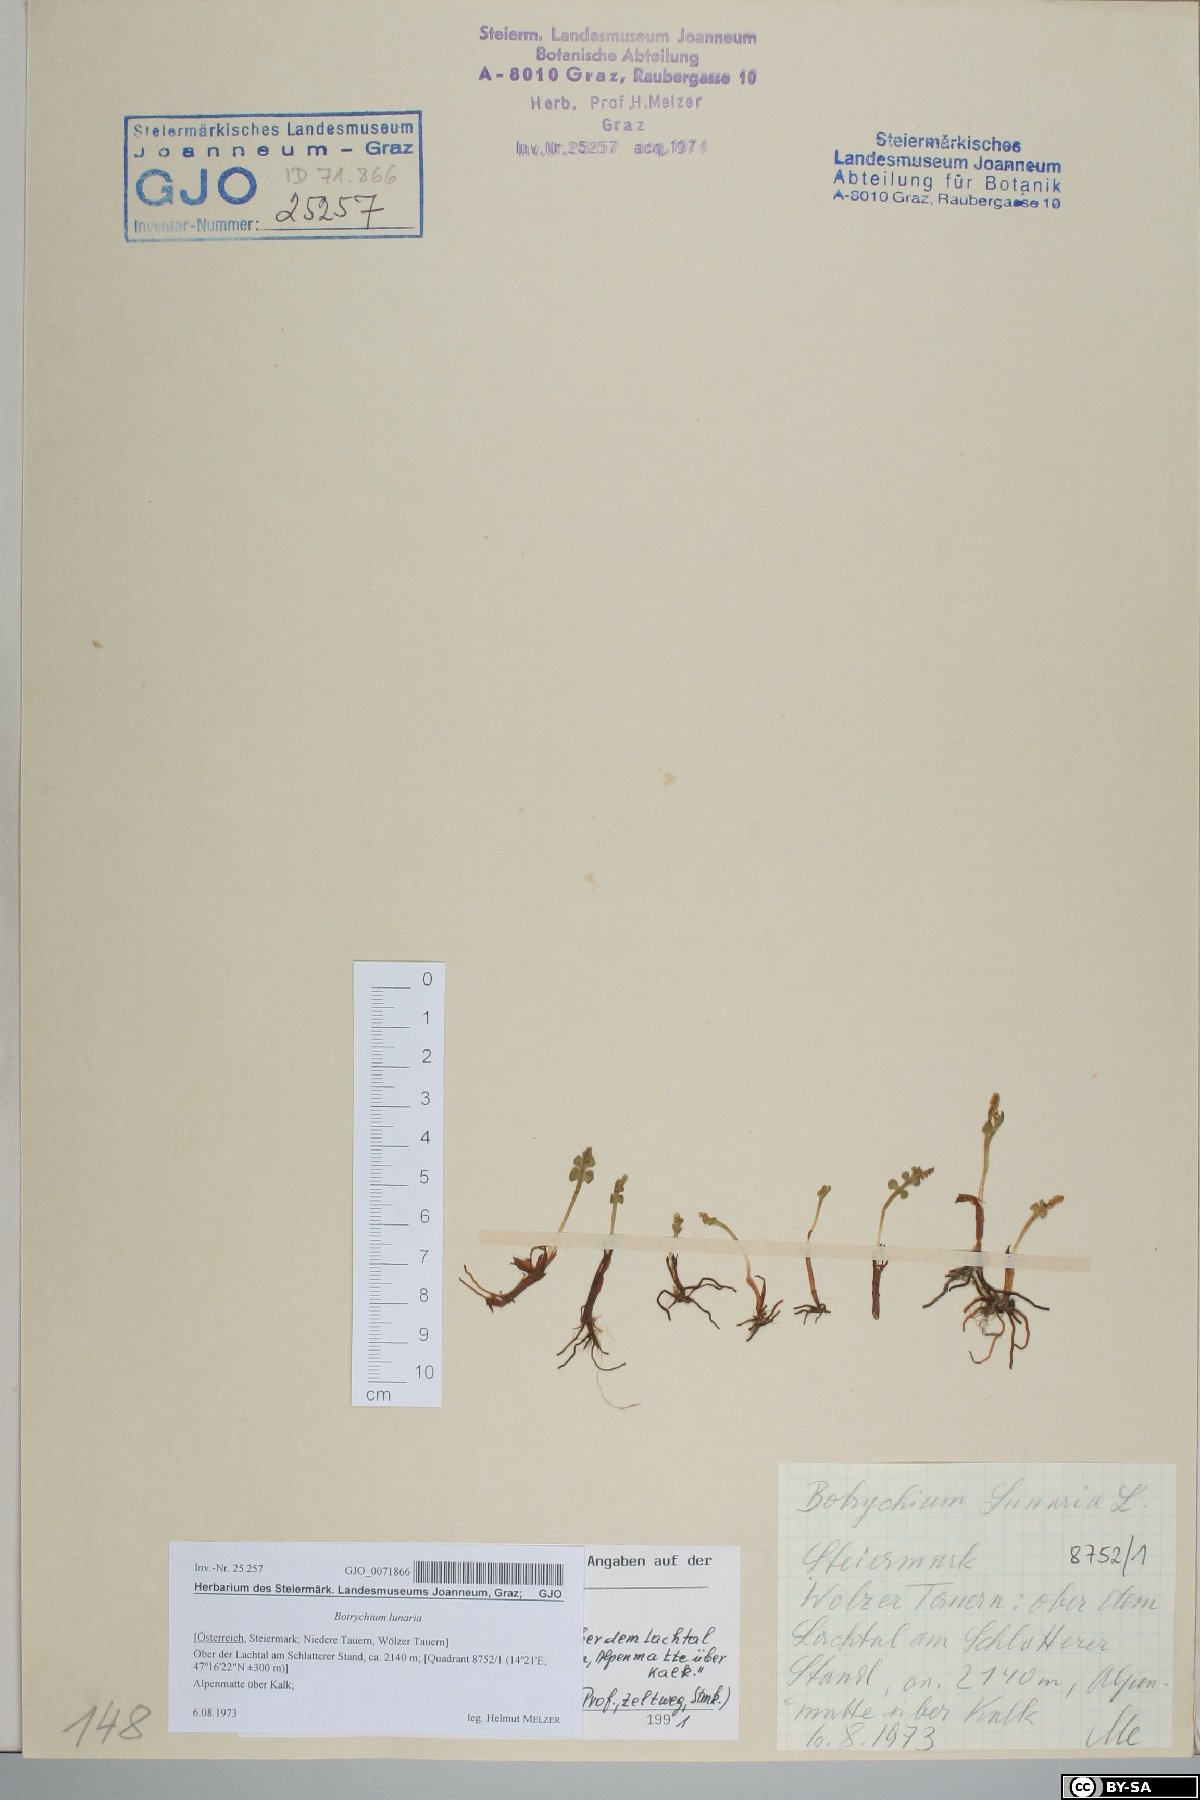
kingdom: Plantae
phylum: Tracheophyta
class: Polypodiopsida
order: Ophioglossales
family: Ophioglossaceae
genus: Botrychium
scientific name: Botrychium lunaria
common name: Moonwort
